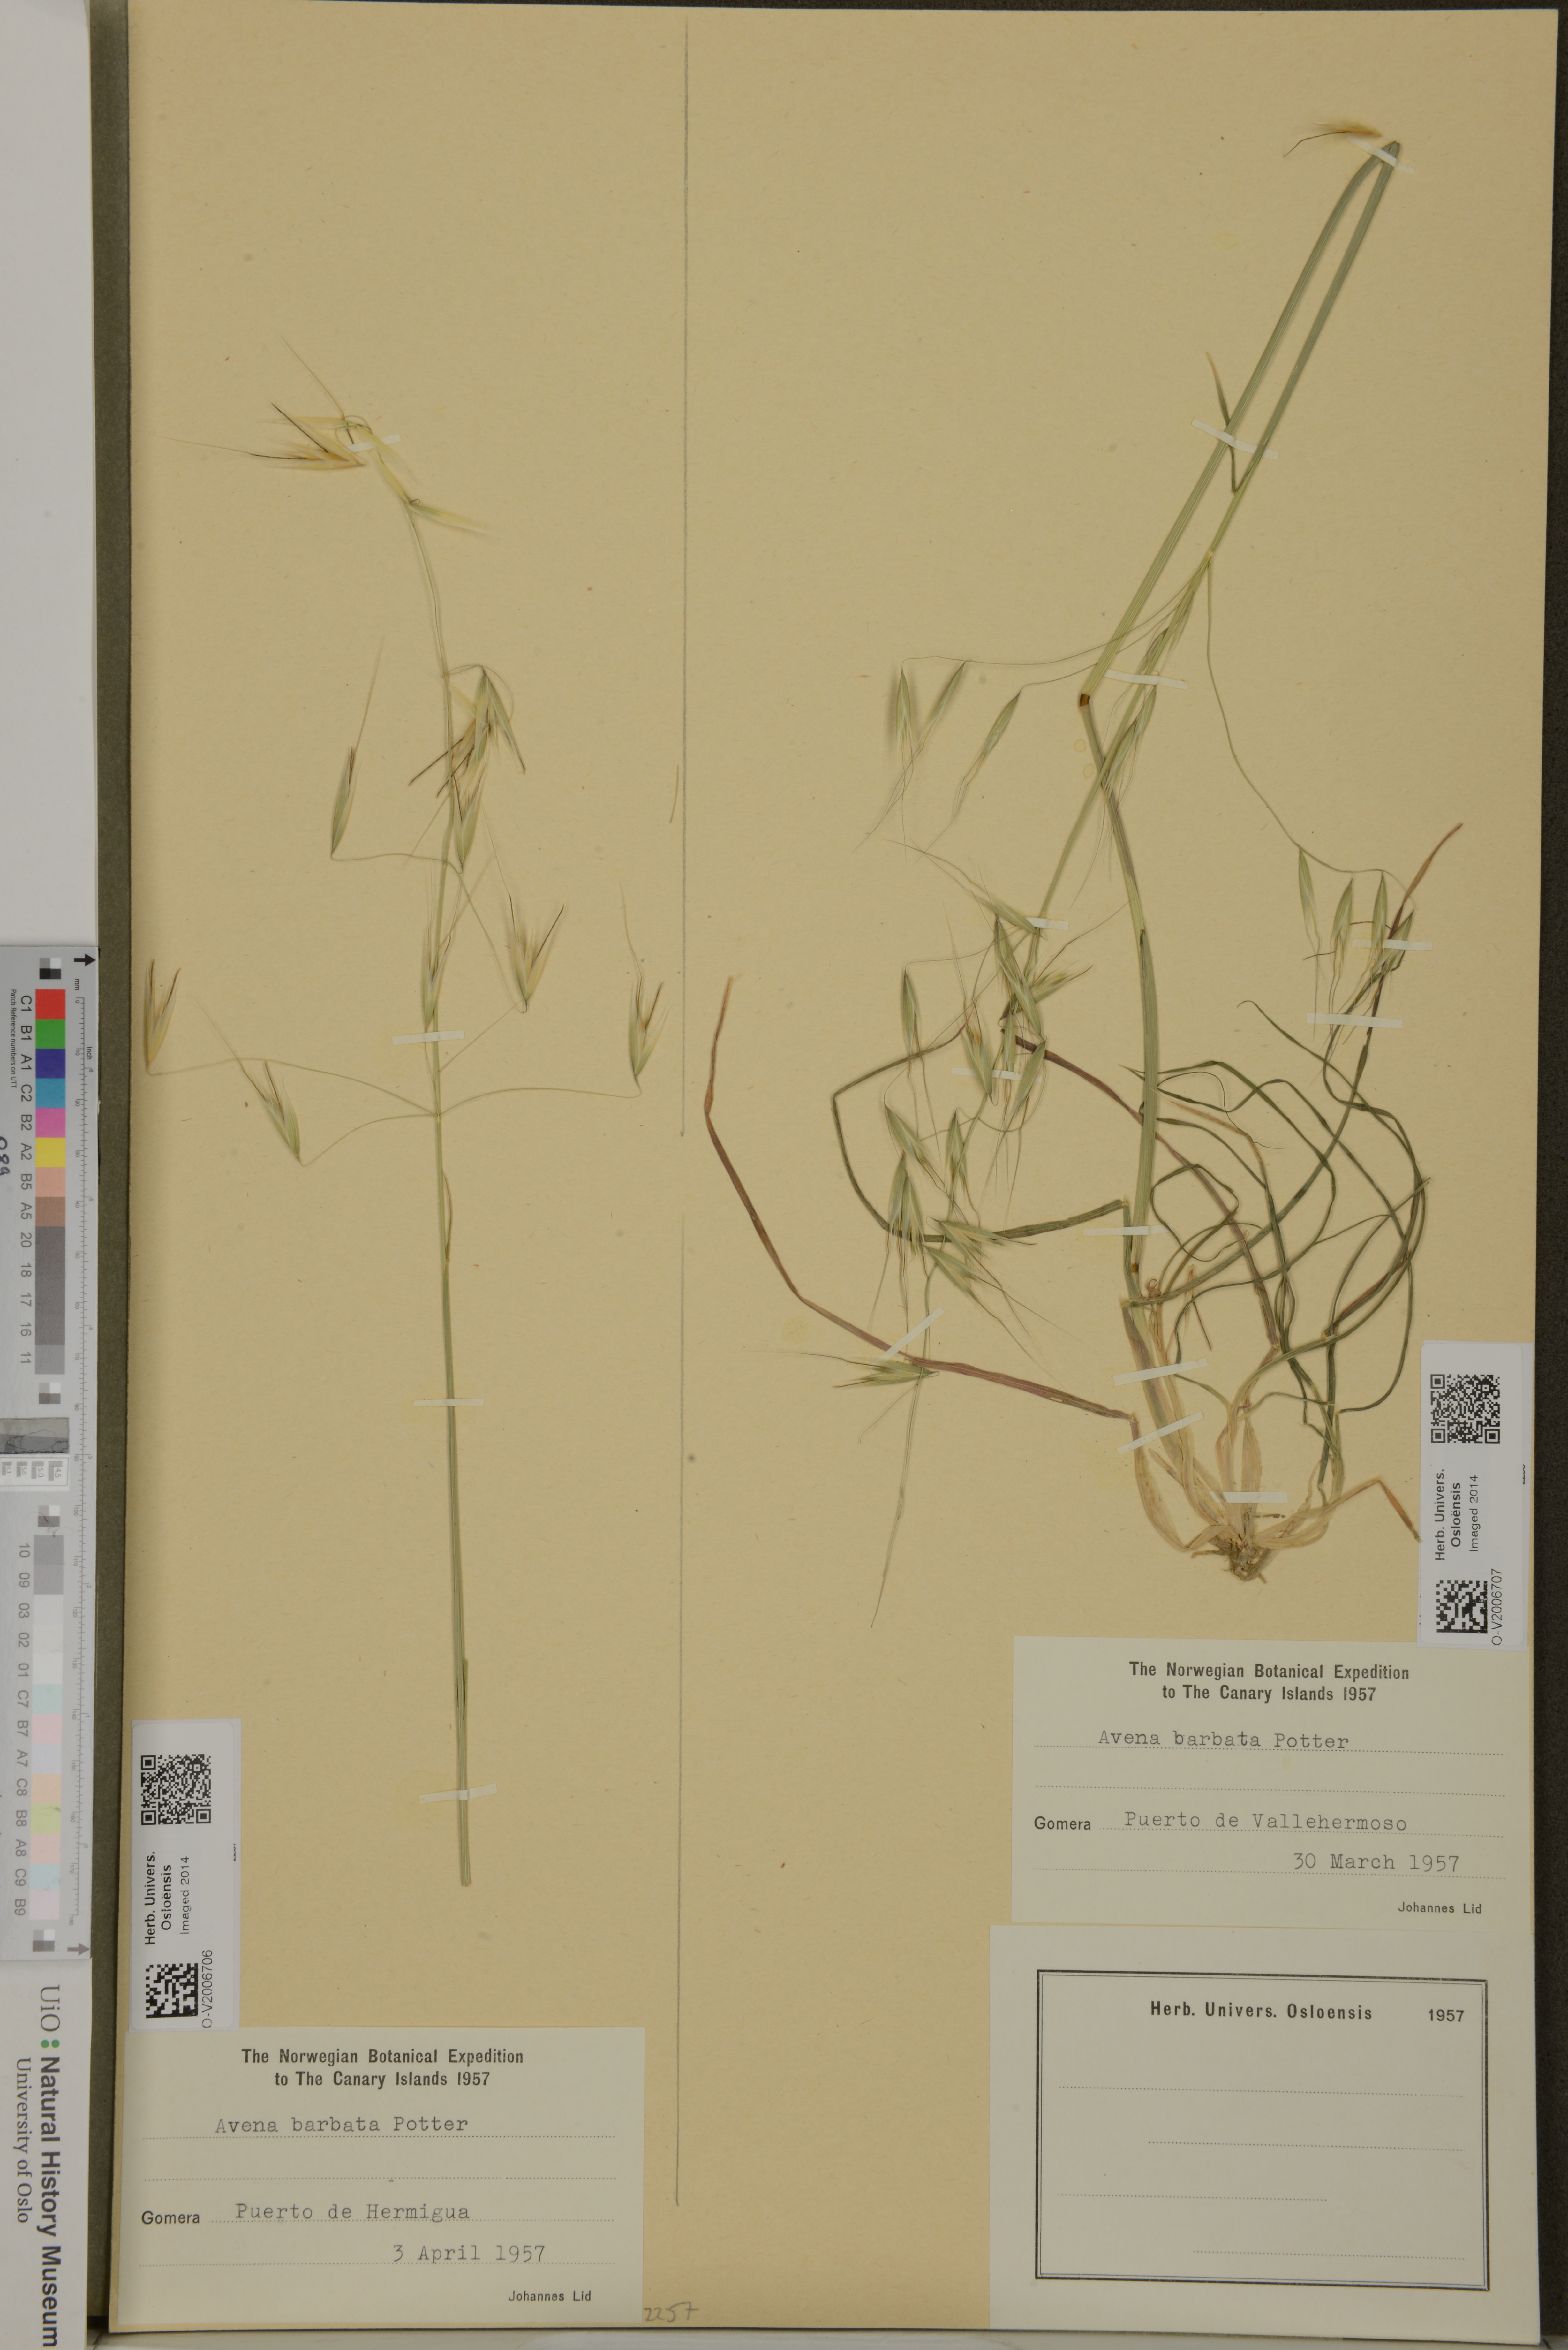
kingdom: Plantae
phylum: Tracheophyta
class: Liliopsida
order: Poales
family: Poaceae
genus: Avena
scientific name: Avena barbata
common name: Slender oat
